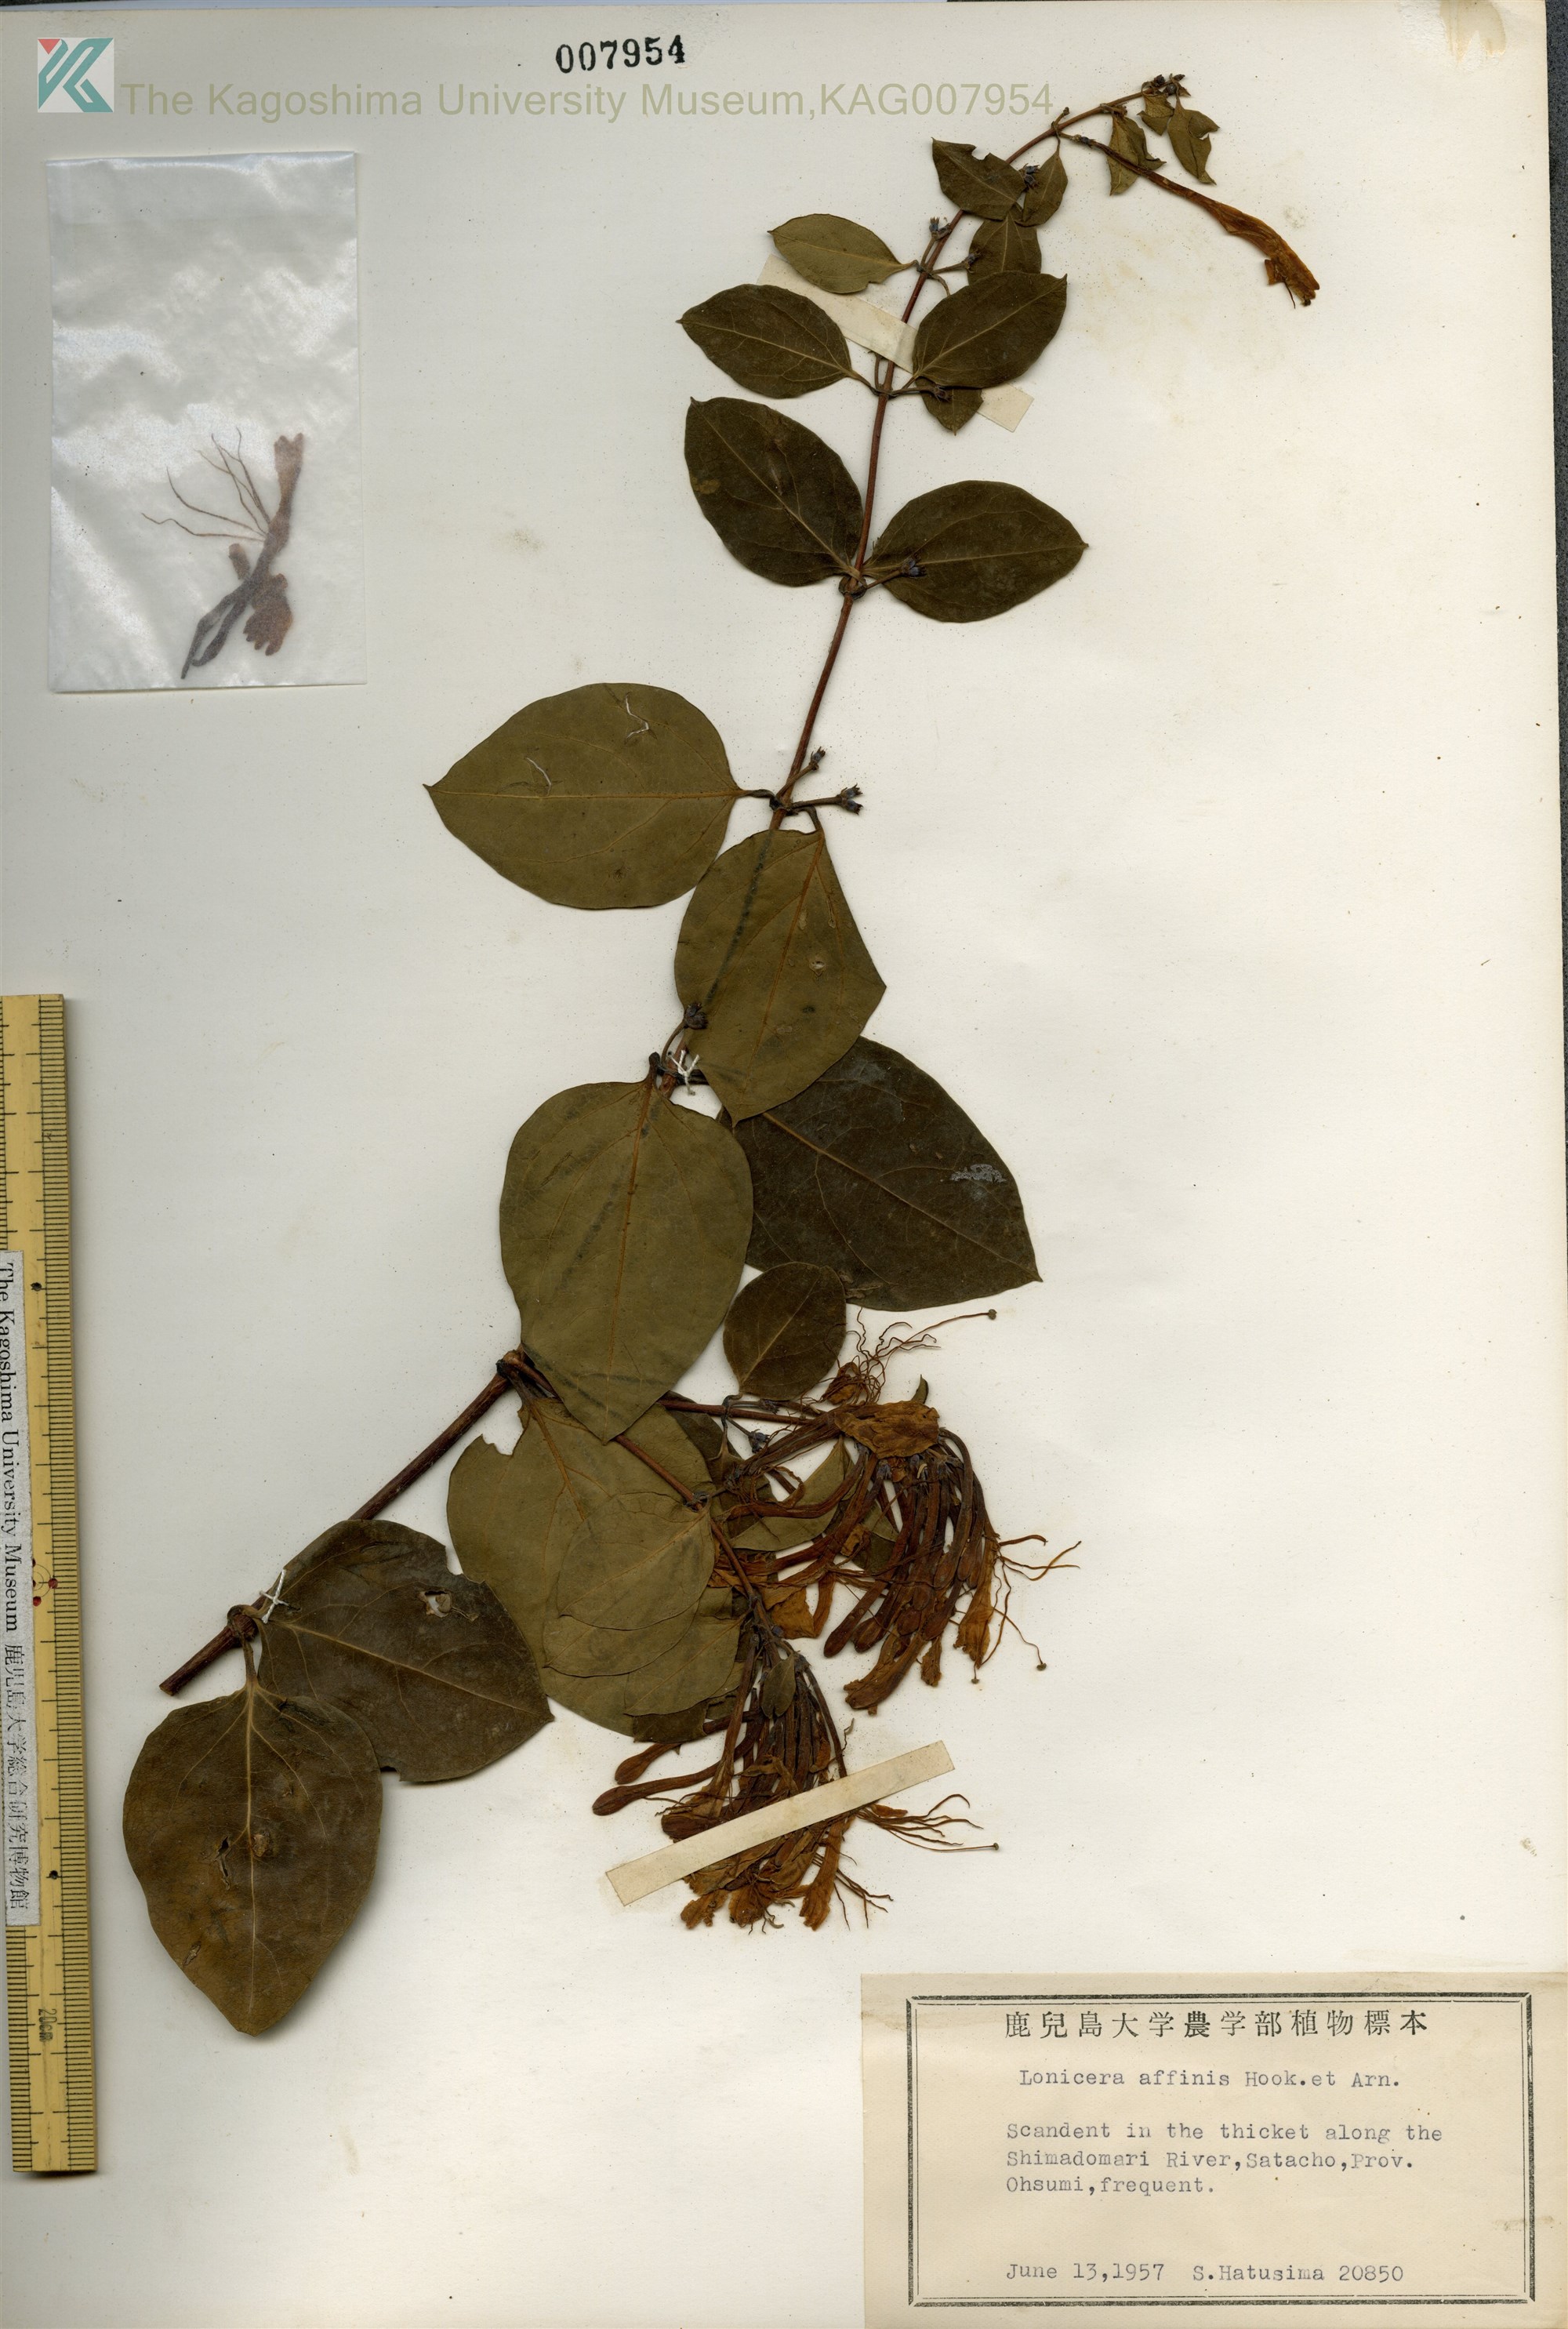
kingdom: Plantae
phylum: Tracheophyta
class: Magnoliopsida
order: Dipsacales
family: Caprifoliaceae
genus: Lonicera
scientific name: Lonicera affinis
